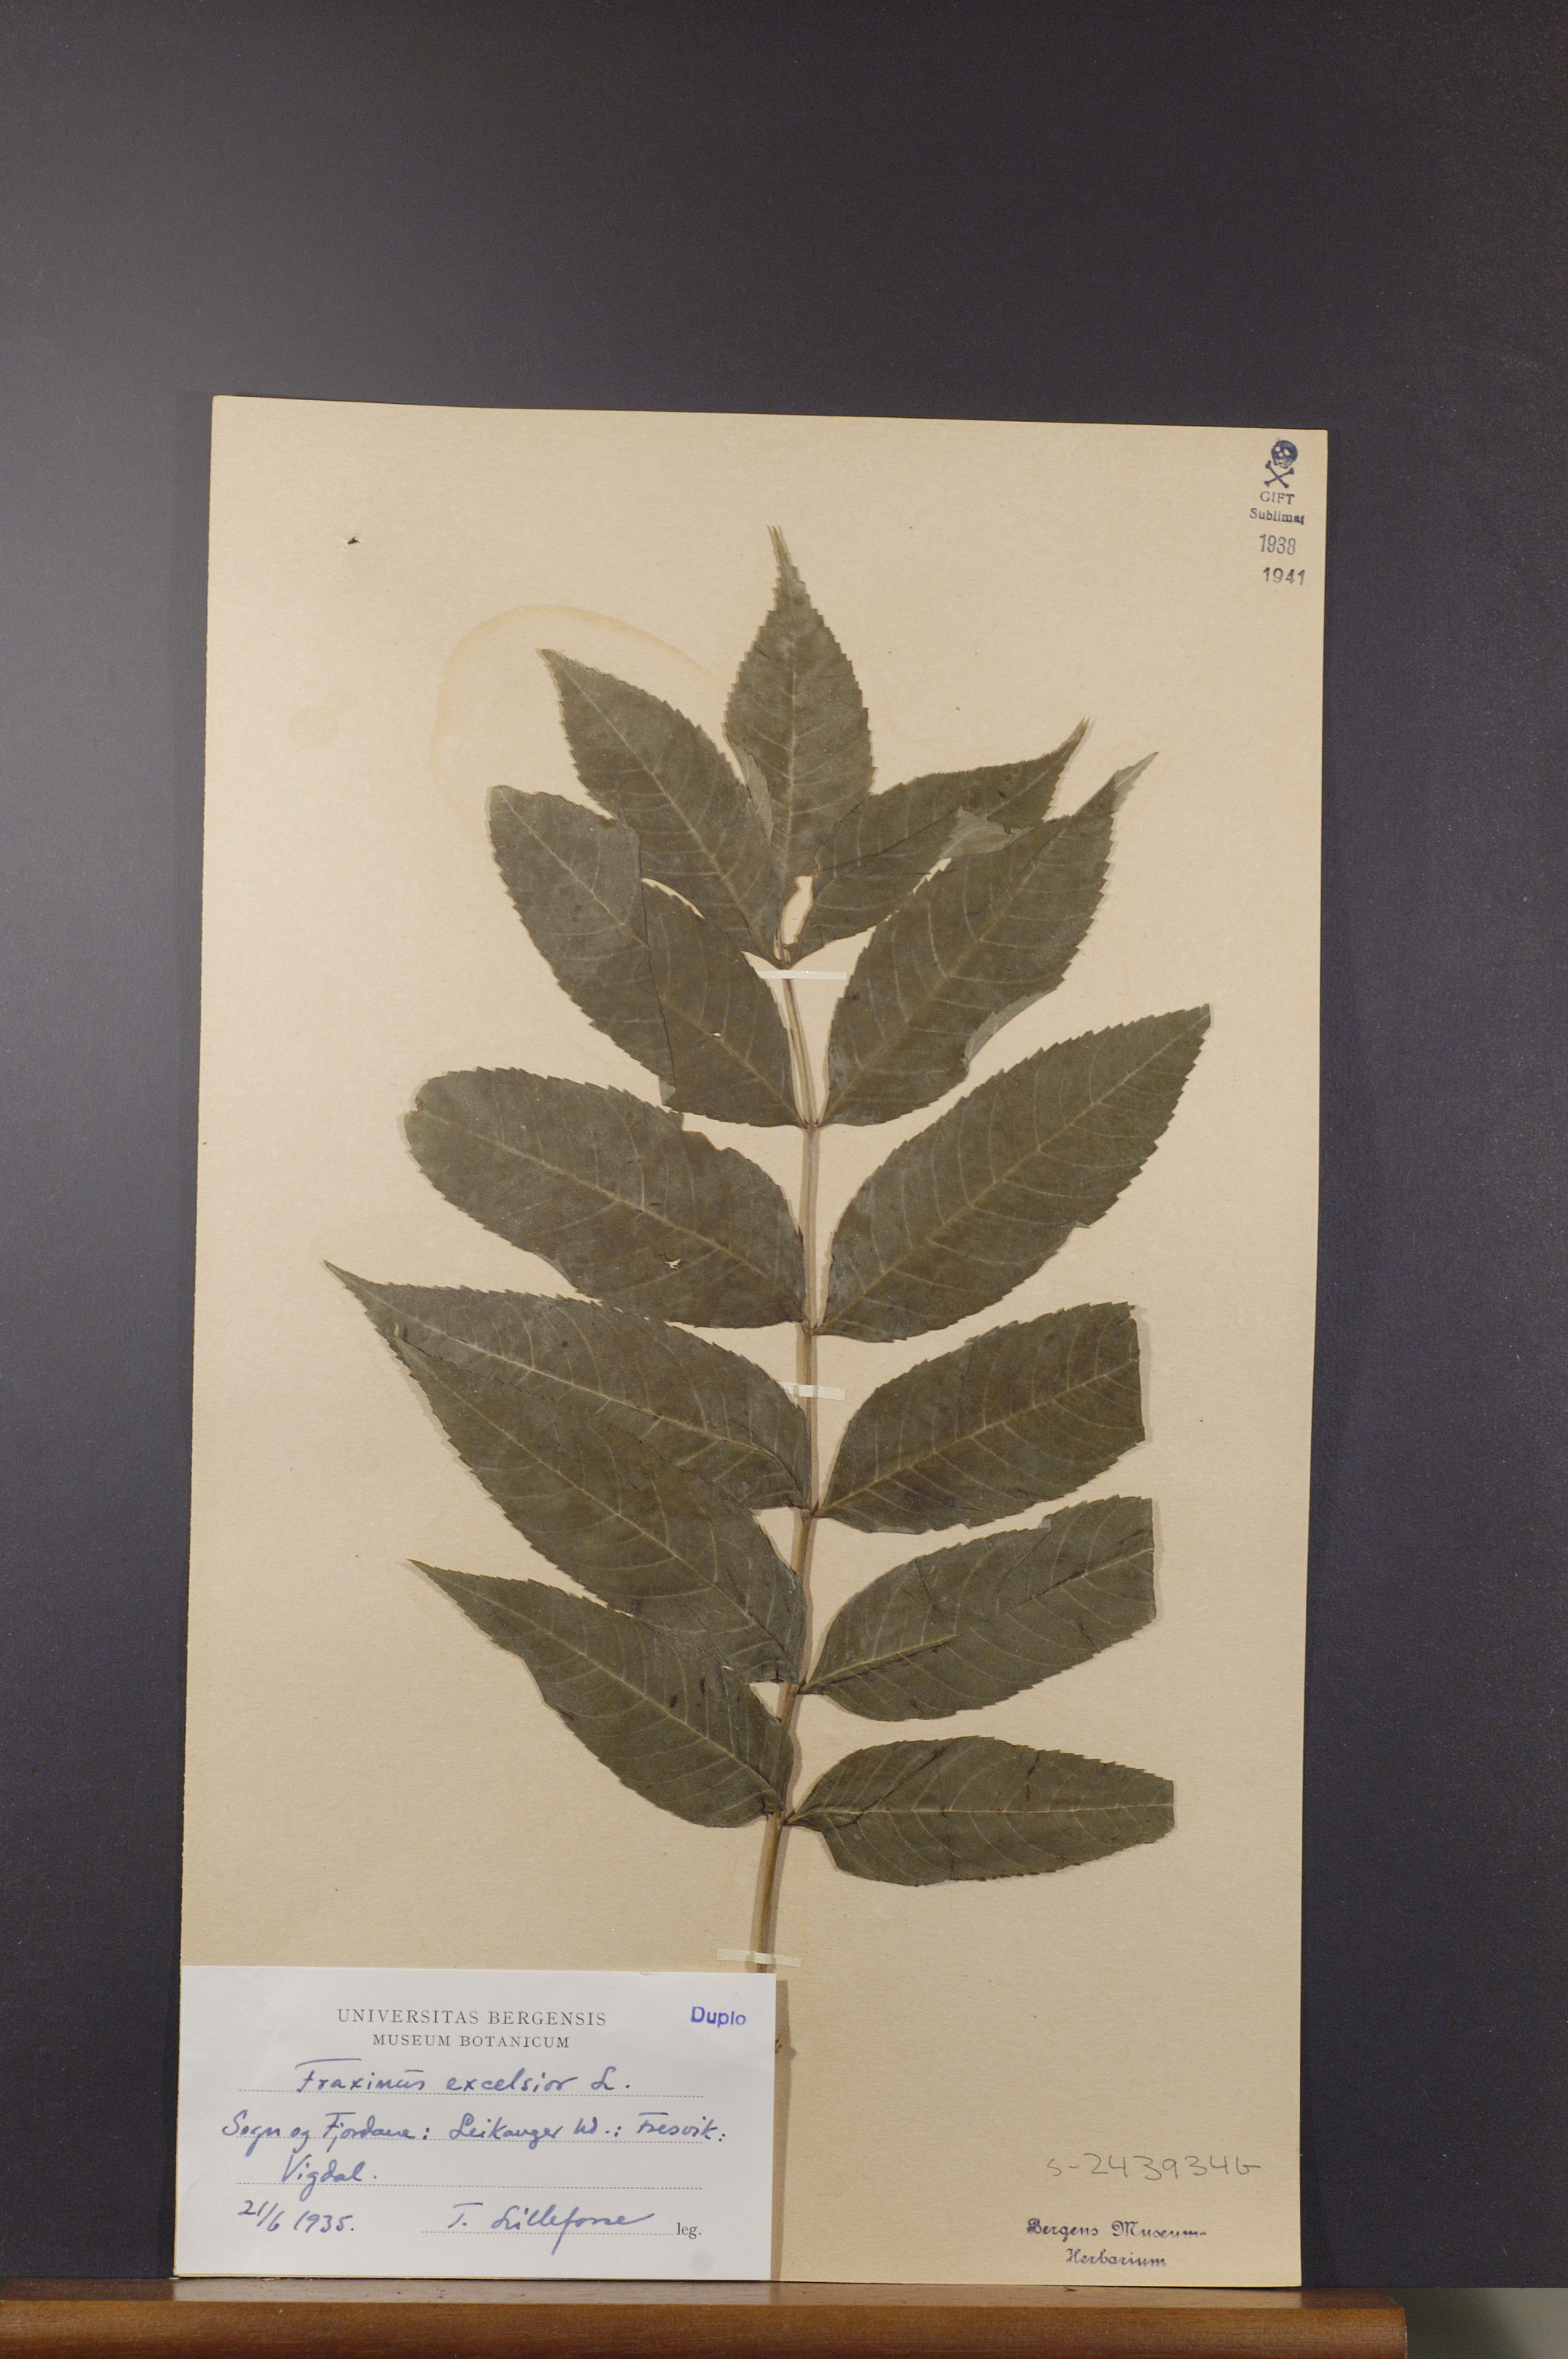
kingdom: Plantae
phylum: Tracheophyta
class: Magnoliopsida
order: Lamiales
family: Oleaceae
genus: Fraxinus
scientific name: Fraxinus excelsior
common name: European ash
